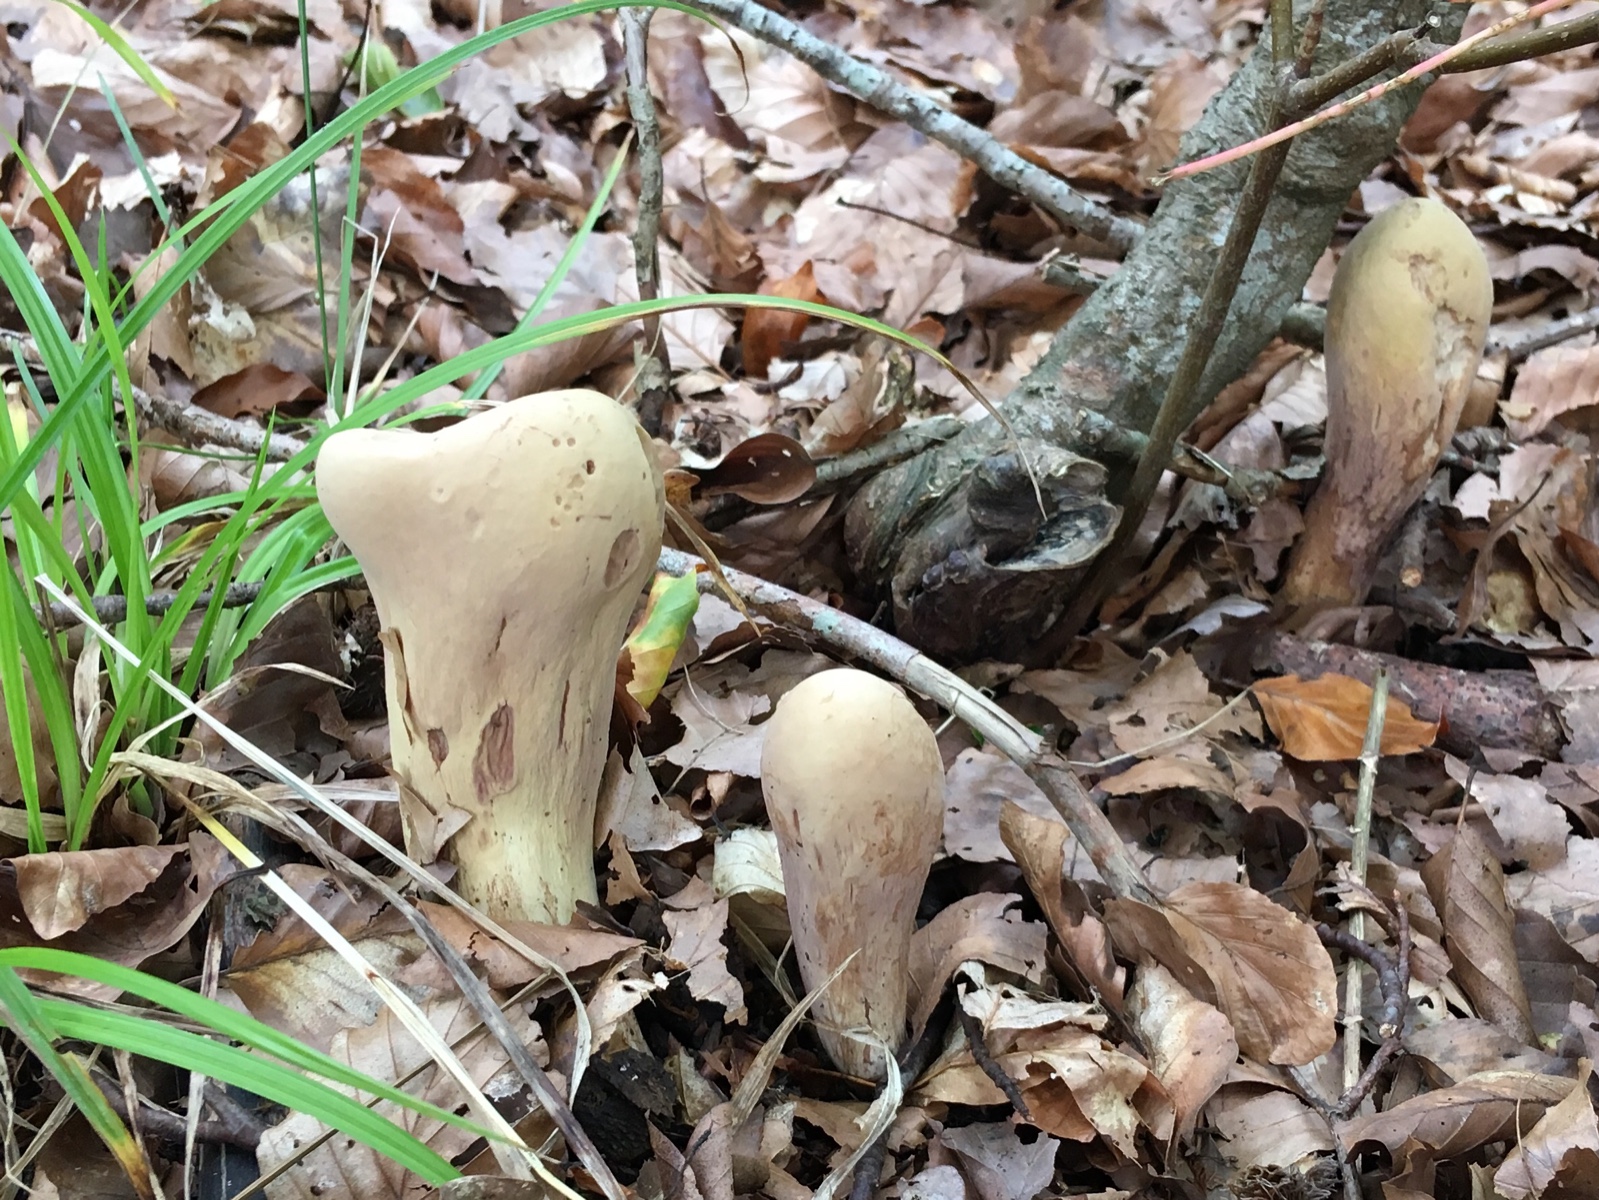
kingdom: Fungi
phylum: Basidiomycota
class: Agaricomycetes
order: Gomphales
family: Clavariadelphaceae
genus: Clavariadelphus
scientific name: Clavariadelphus pistillaris
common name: herkules-kæmpekølle
